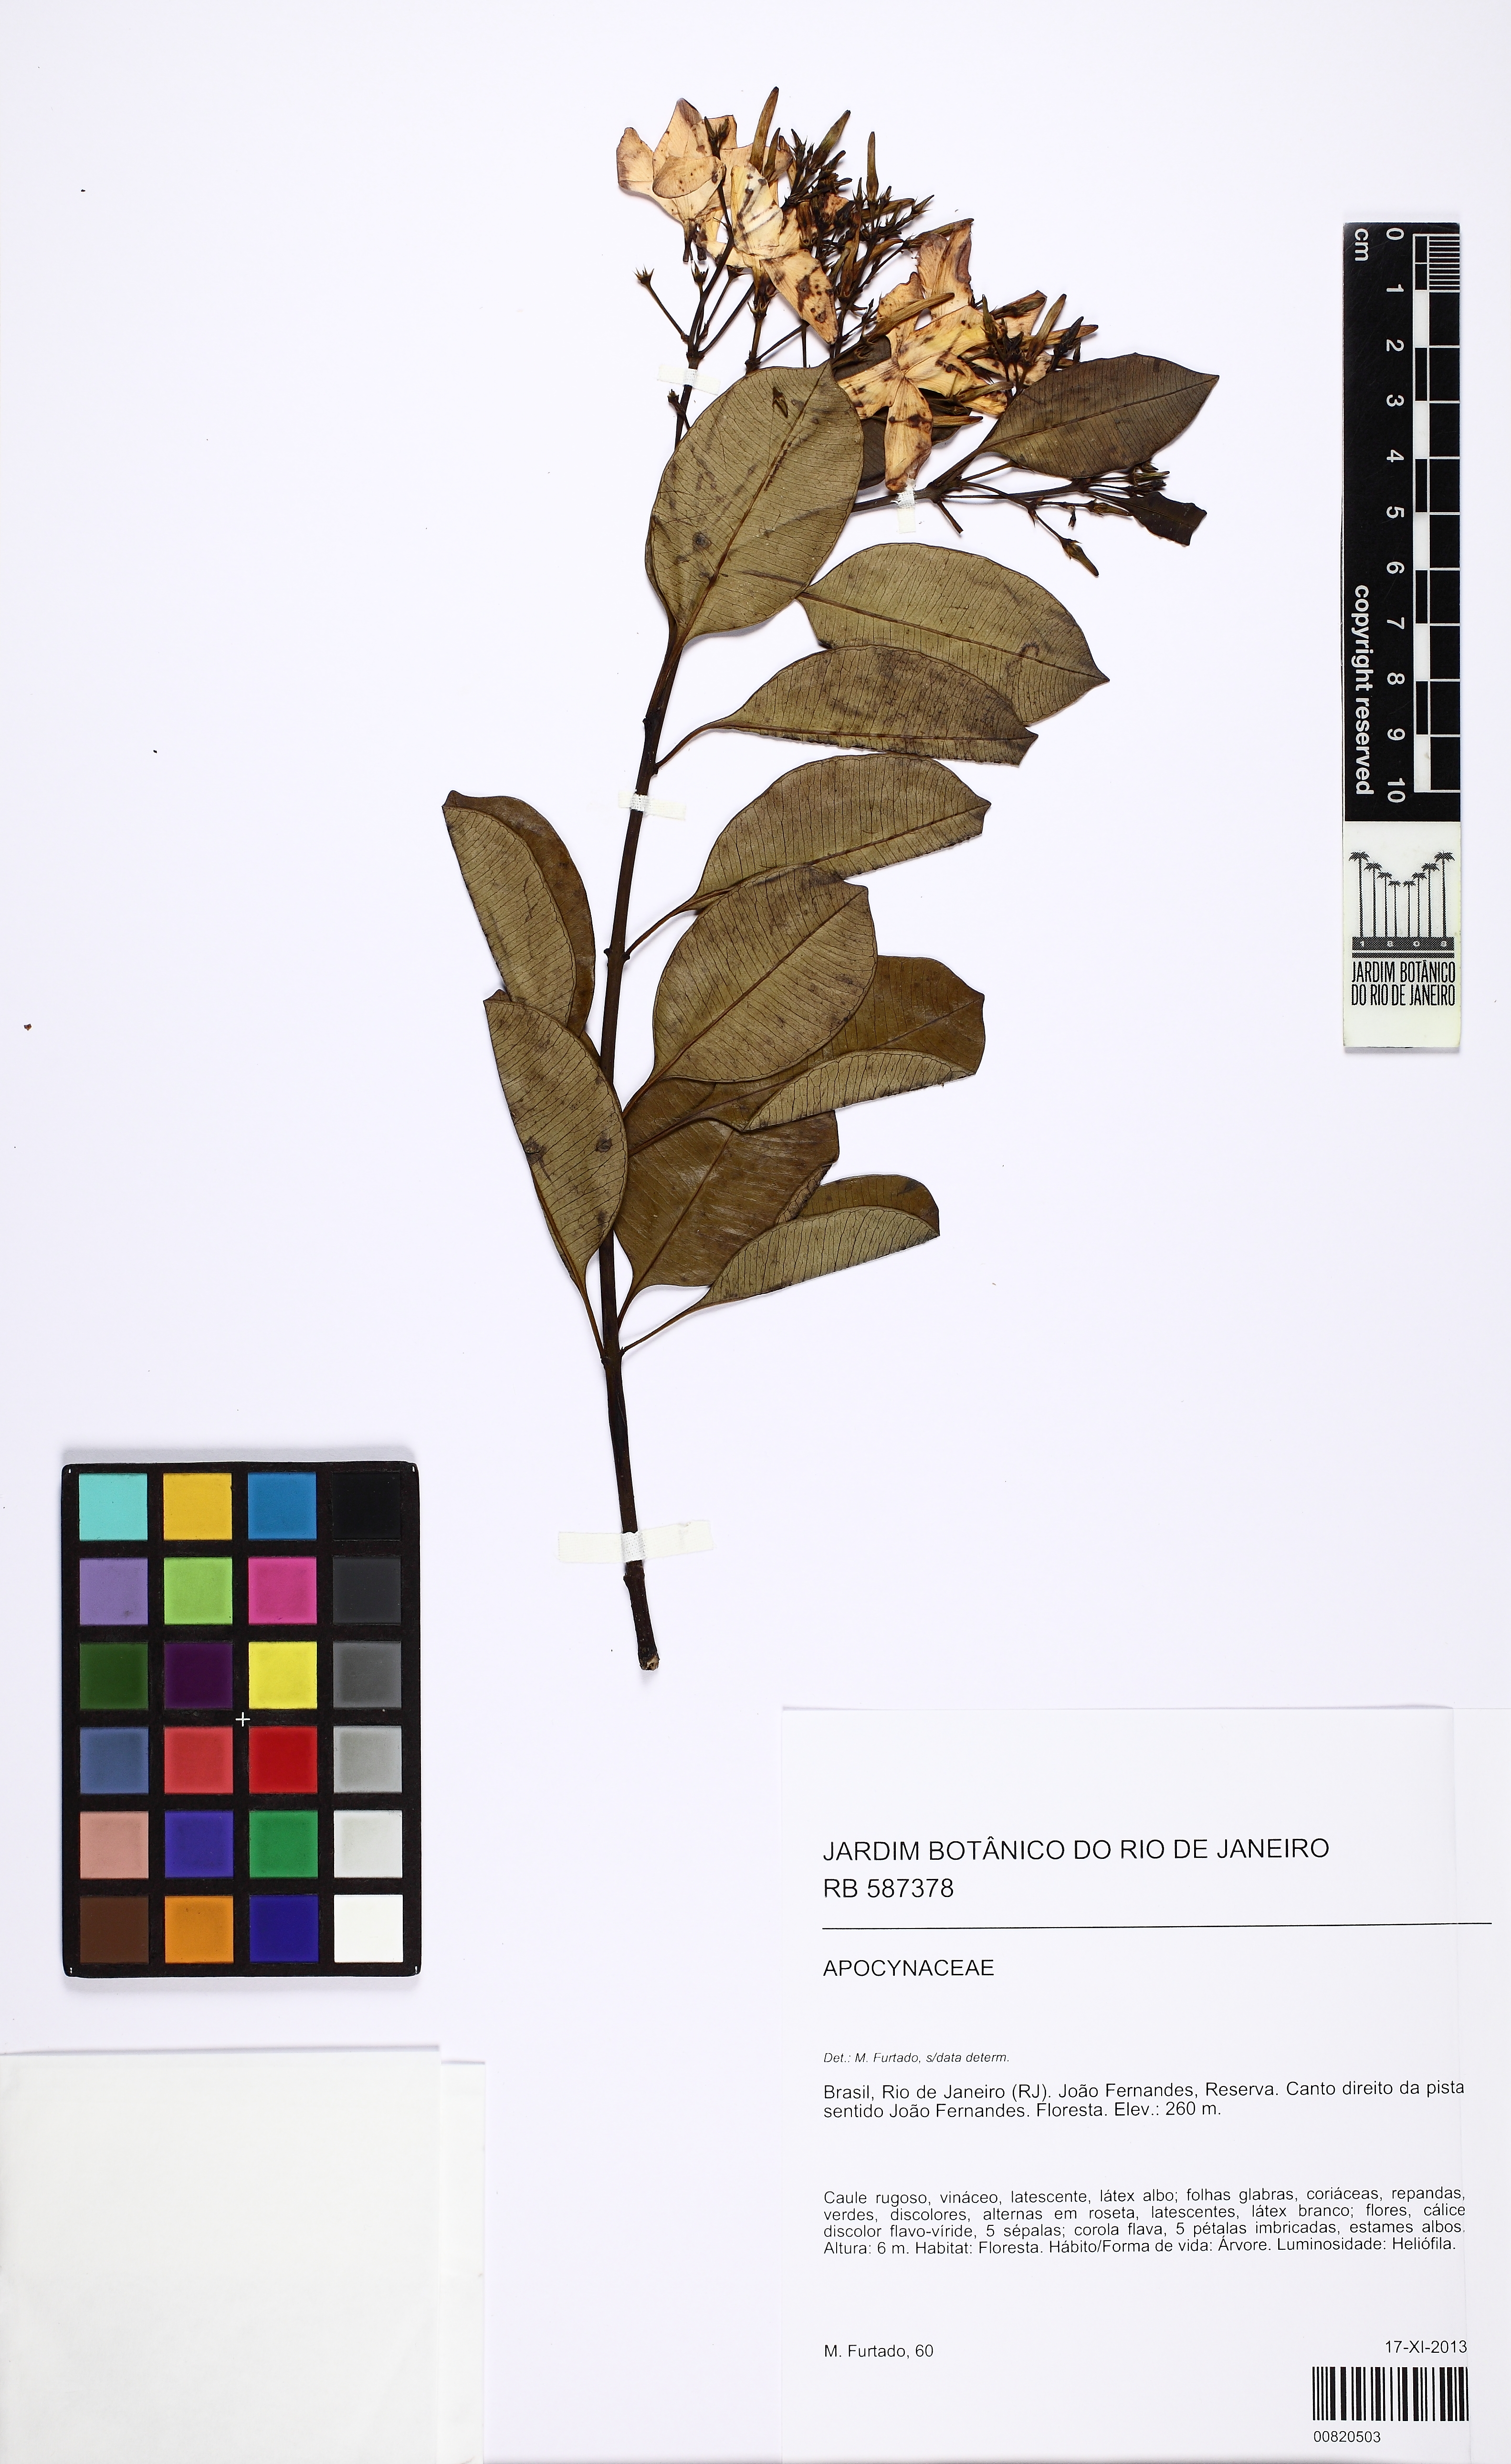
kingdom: Plantae
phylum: Tracheophyta
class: Magnoliopsida
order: Gentianales
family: Apocynaceae
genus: Skytanthus
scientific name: Skytanthus hancorniifolius
